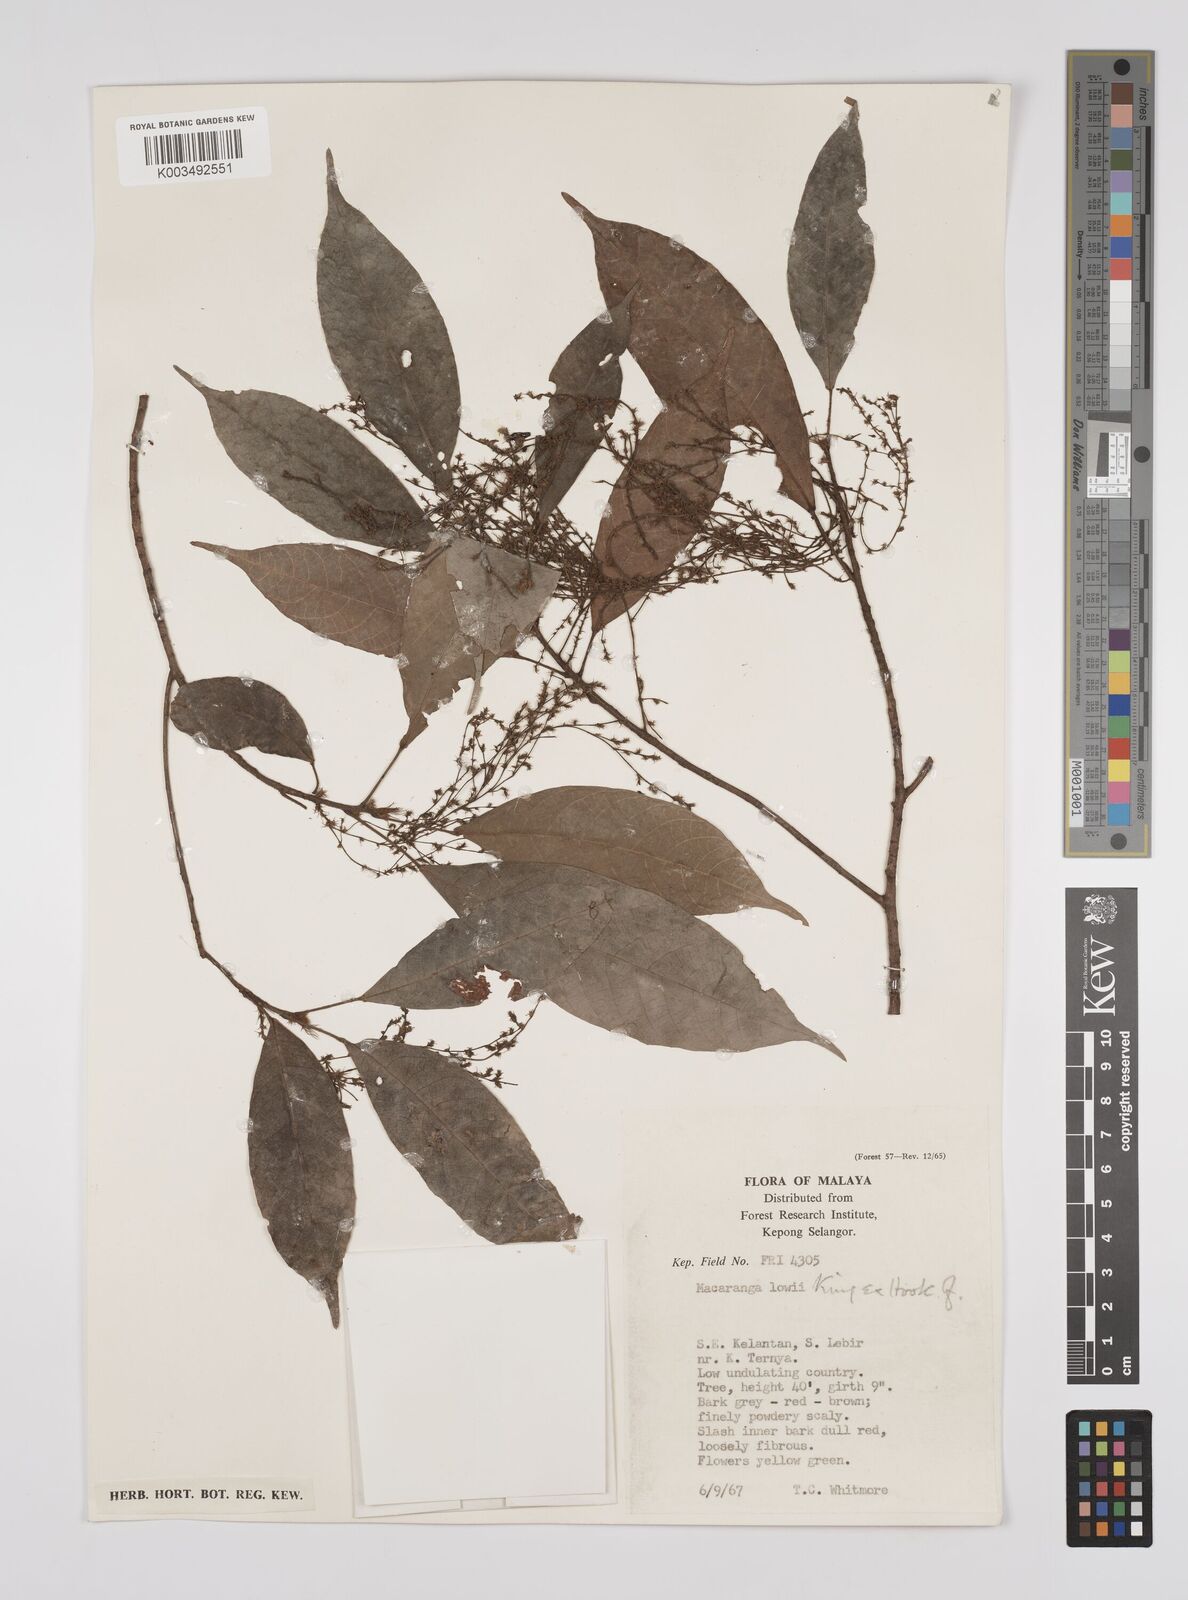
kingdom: Plantae
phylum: Tracheophyta
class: Magnoliopsida
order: Malpighiales
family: Euphorbiaceae
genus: Macaranga
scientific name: Macaranga lowii
